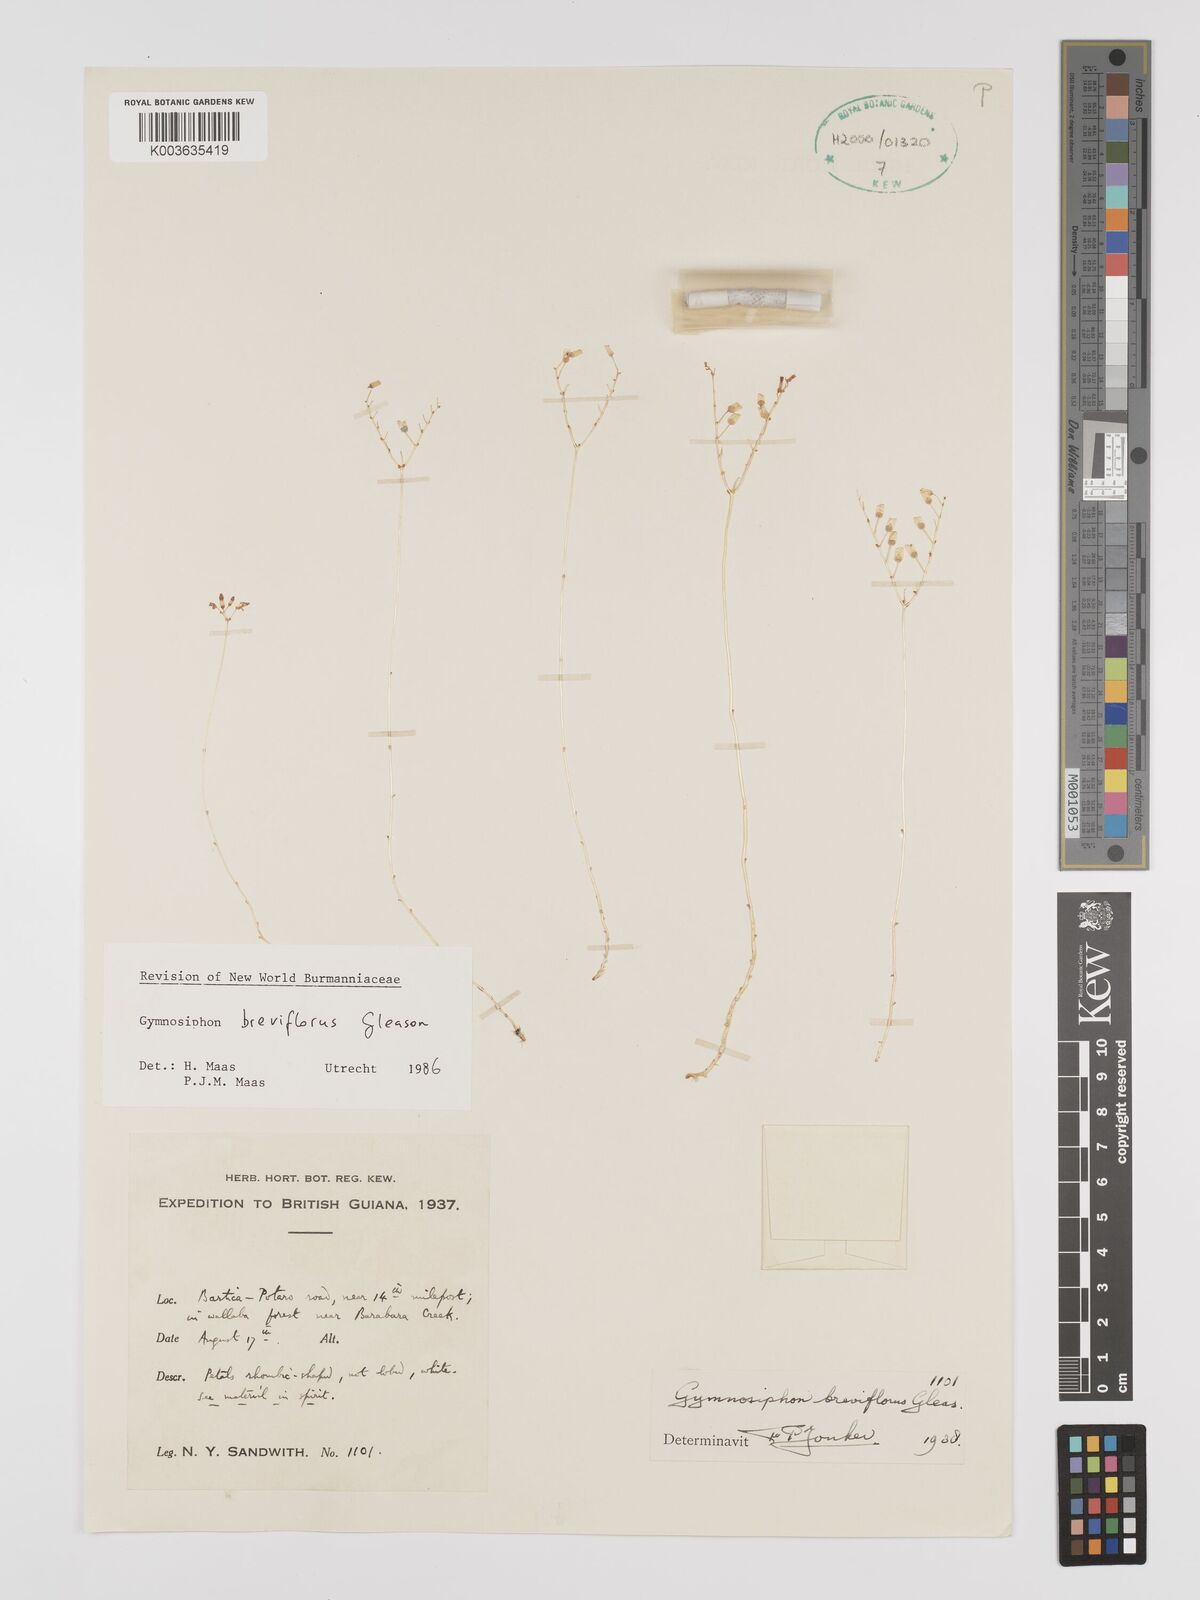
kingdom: Plantae
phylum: Tracheophyta
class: Liliopsida
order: Dioscoreales
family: Burmanniaceae
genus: Gymnosiphon
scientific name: Gymnosiphon breviflorus
